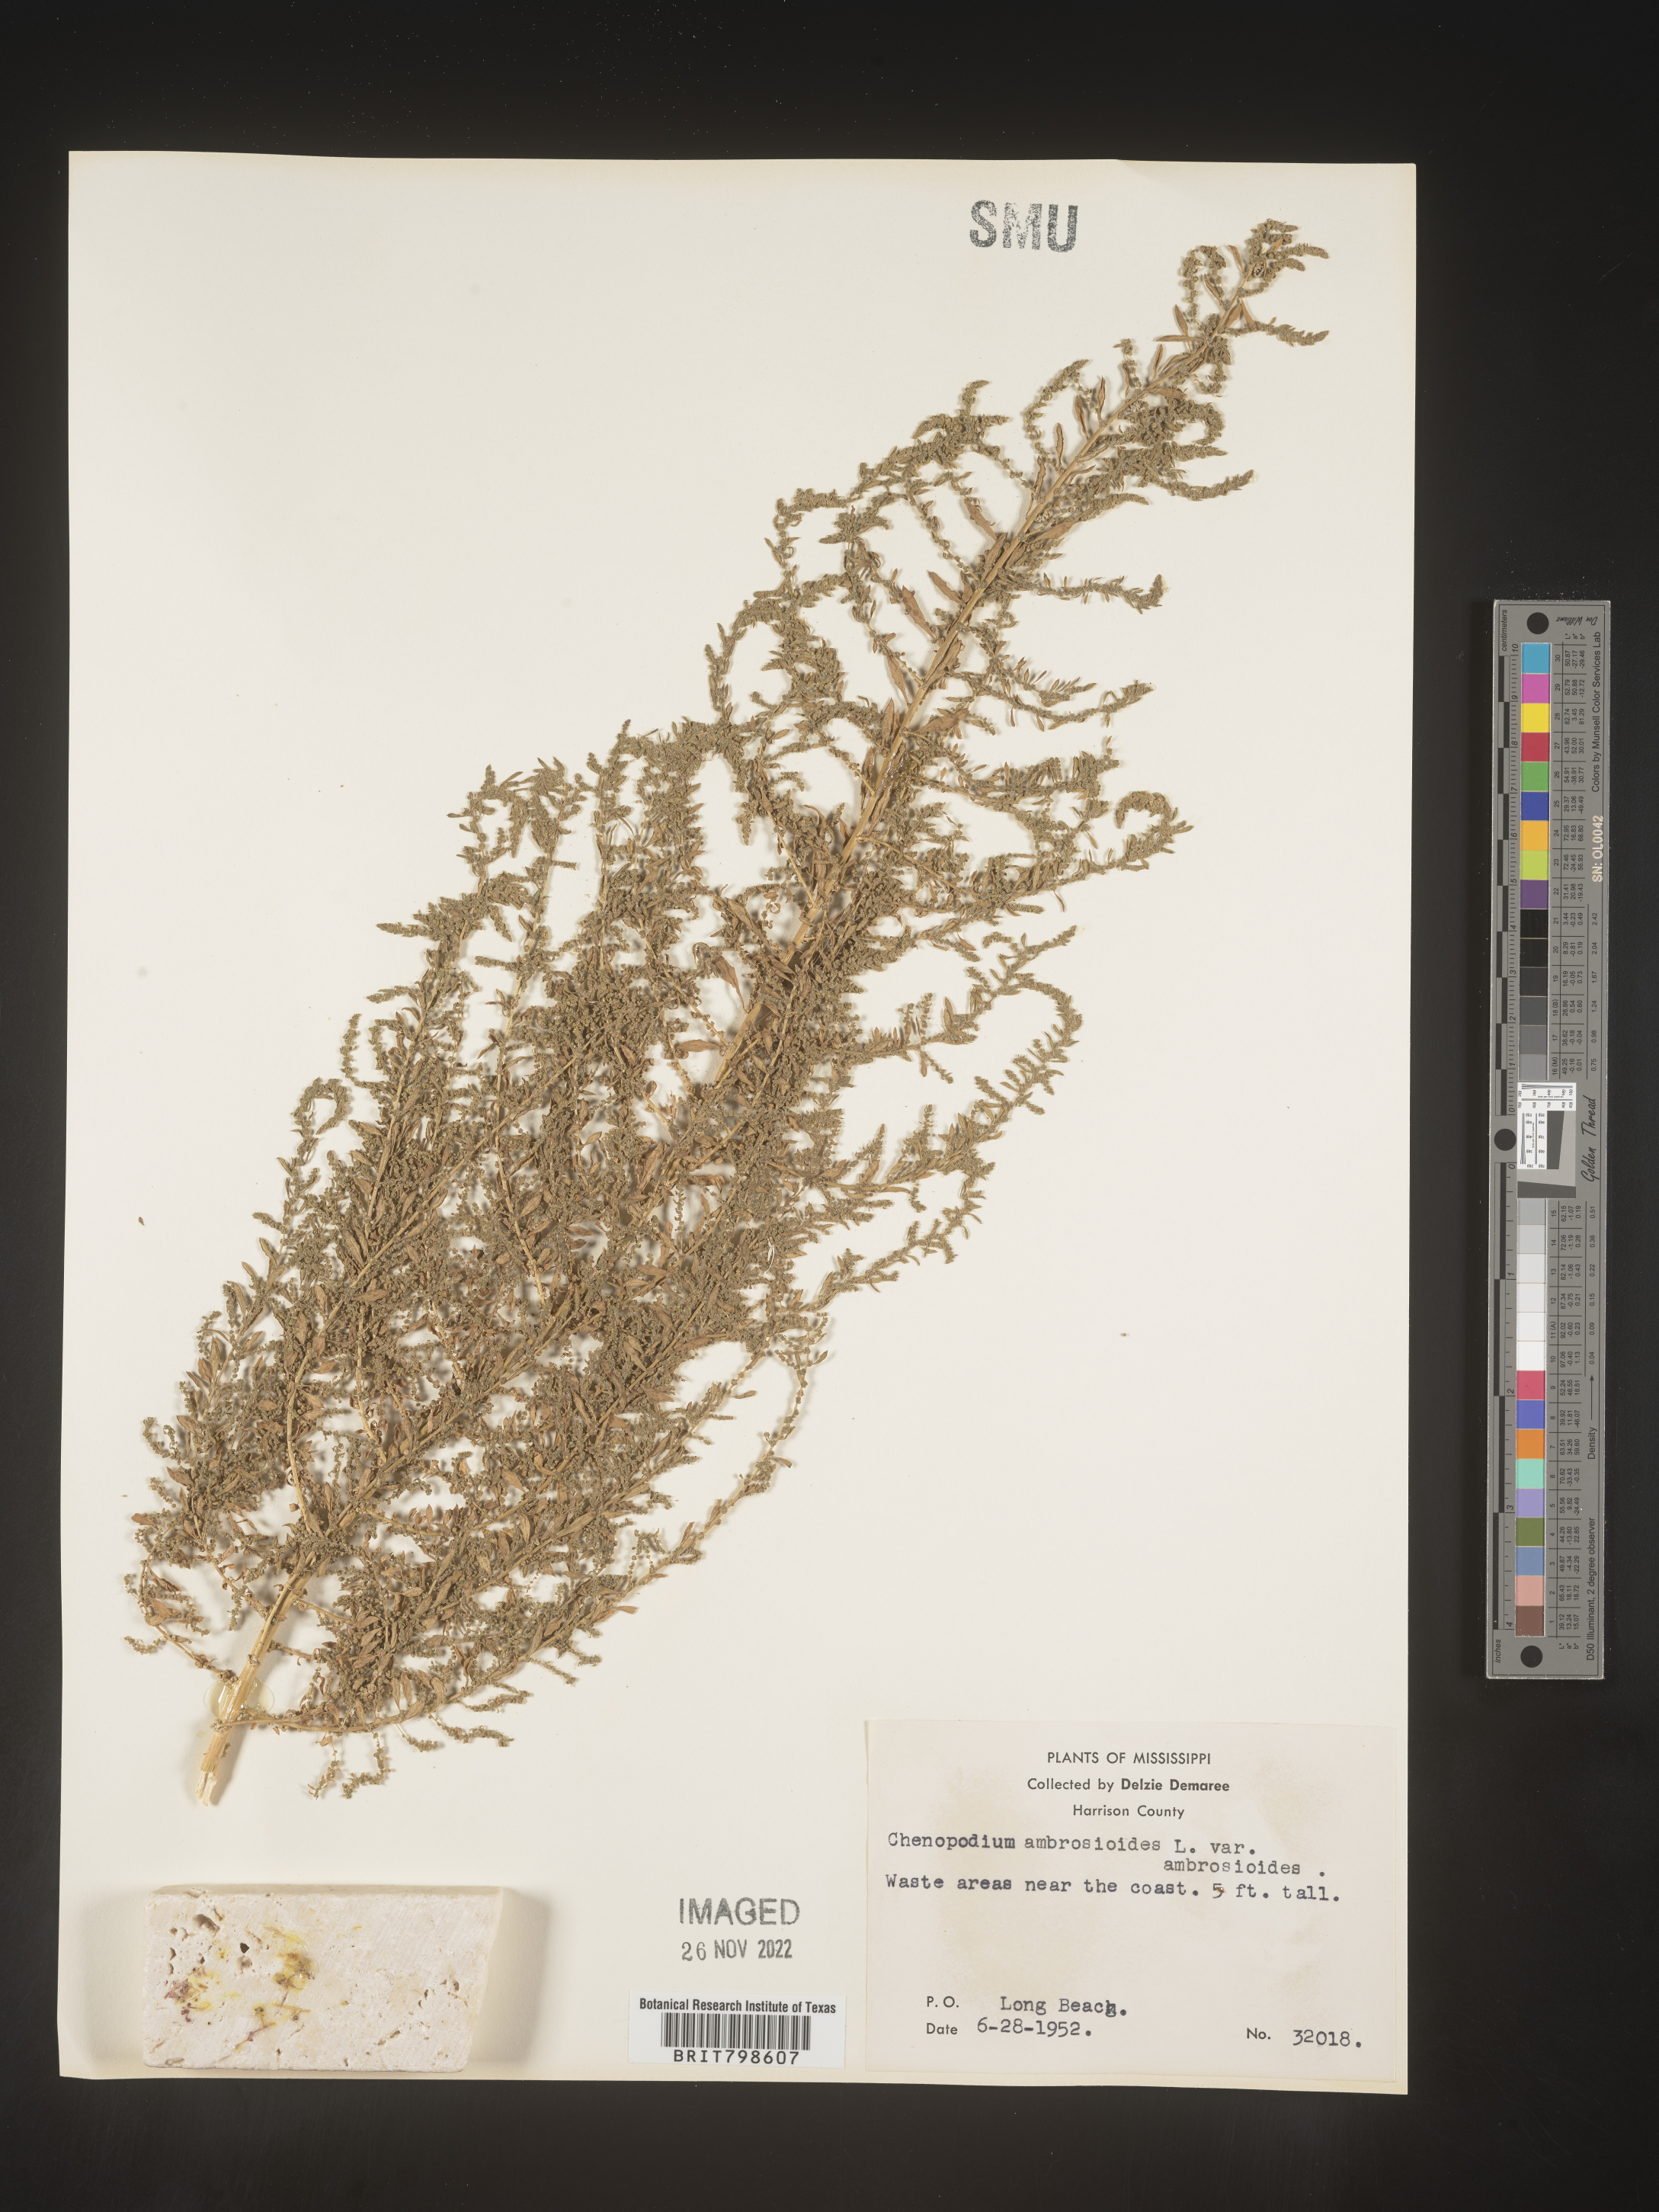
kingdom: Plantae
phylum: Tracheophyta
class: Magnoliopsida
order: Caryophyllales
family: Amaranthaceae
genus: Dysphania
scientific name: Dysphania ambrosioides
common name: Wormseed
